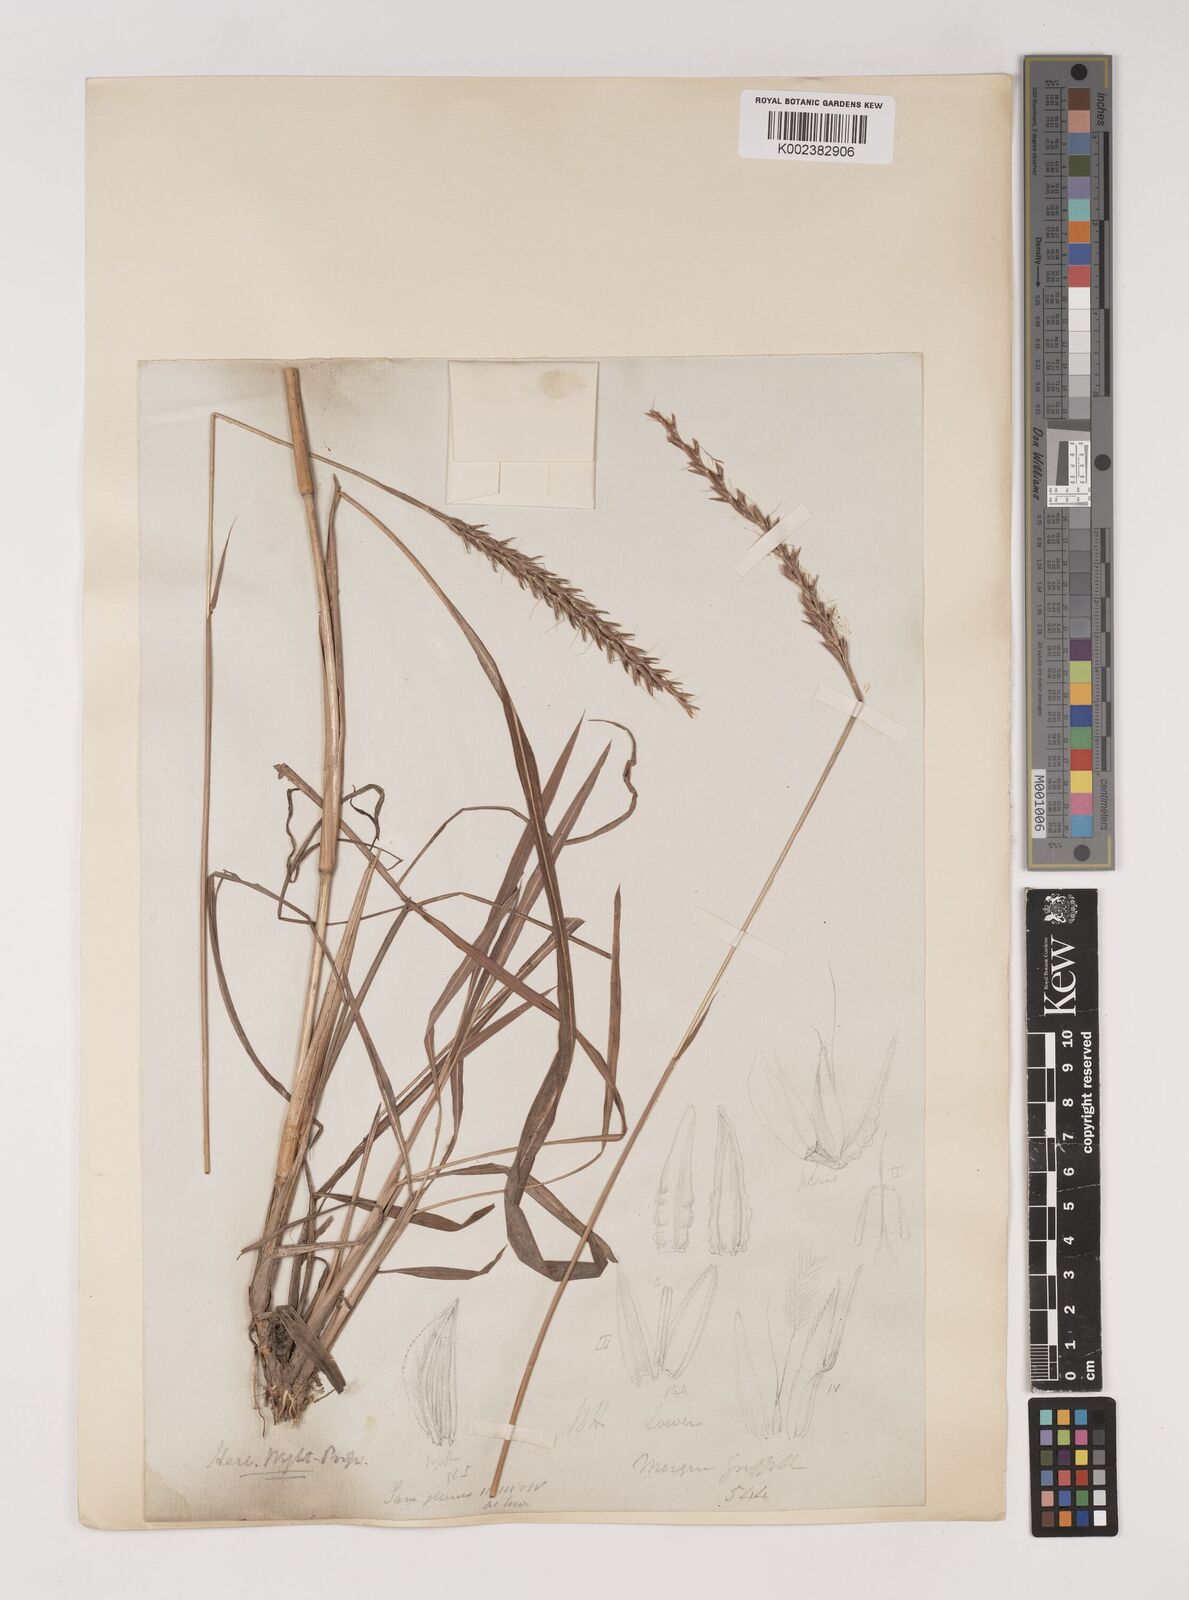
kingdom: Plantae
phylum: Tracheophyta
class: Liliopsida
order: Poales
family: Poaceae
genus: Ischaemum
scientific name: Ischaemum
